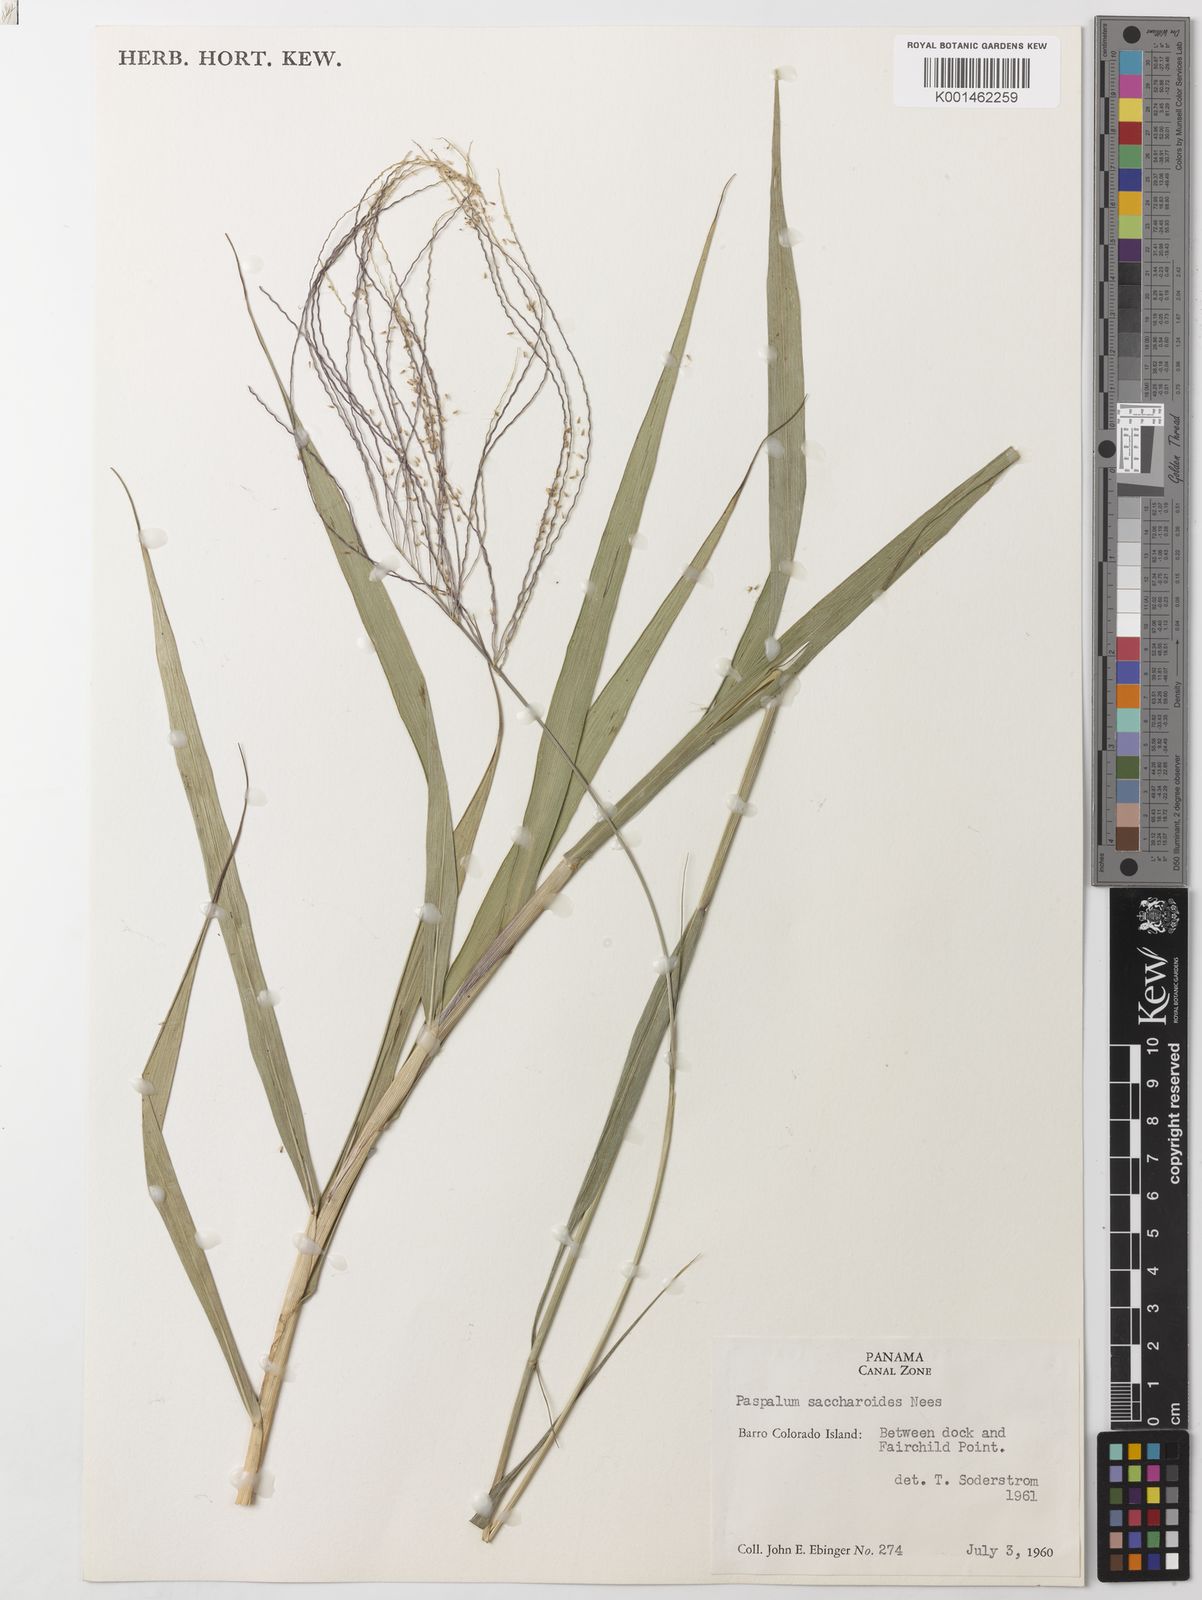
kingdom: Plantae
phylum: Tracheophyta
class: Liliopsida
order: Poales
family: Poaceae
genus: Paspalum
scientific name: Paspalum saccharoides
